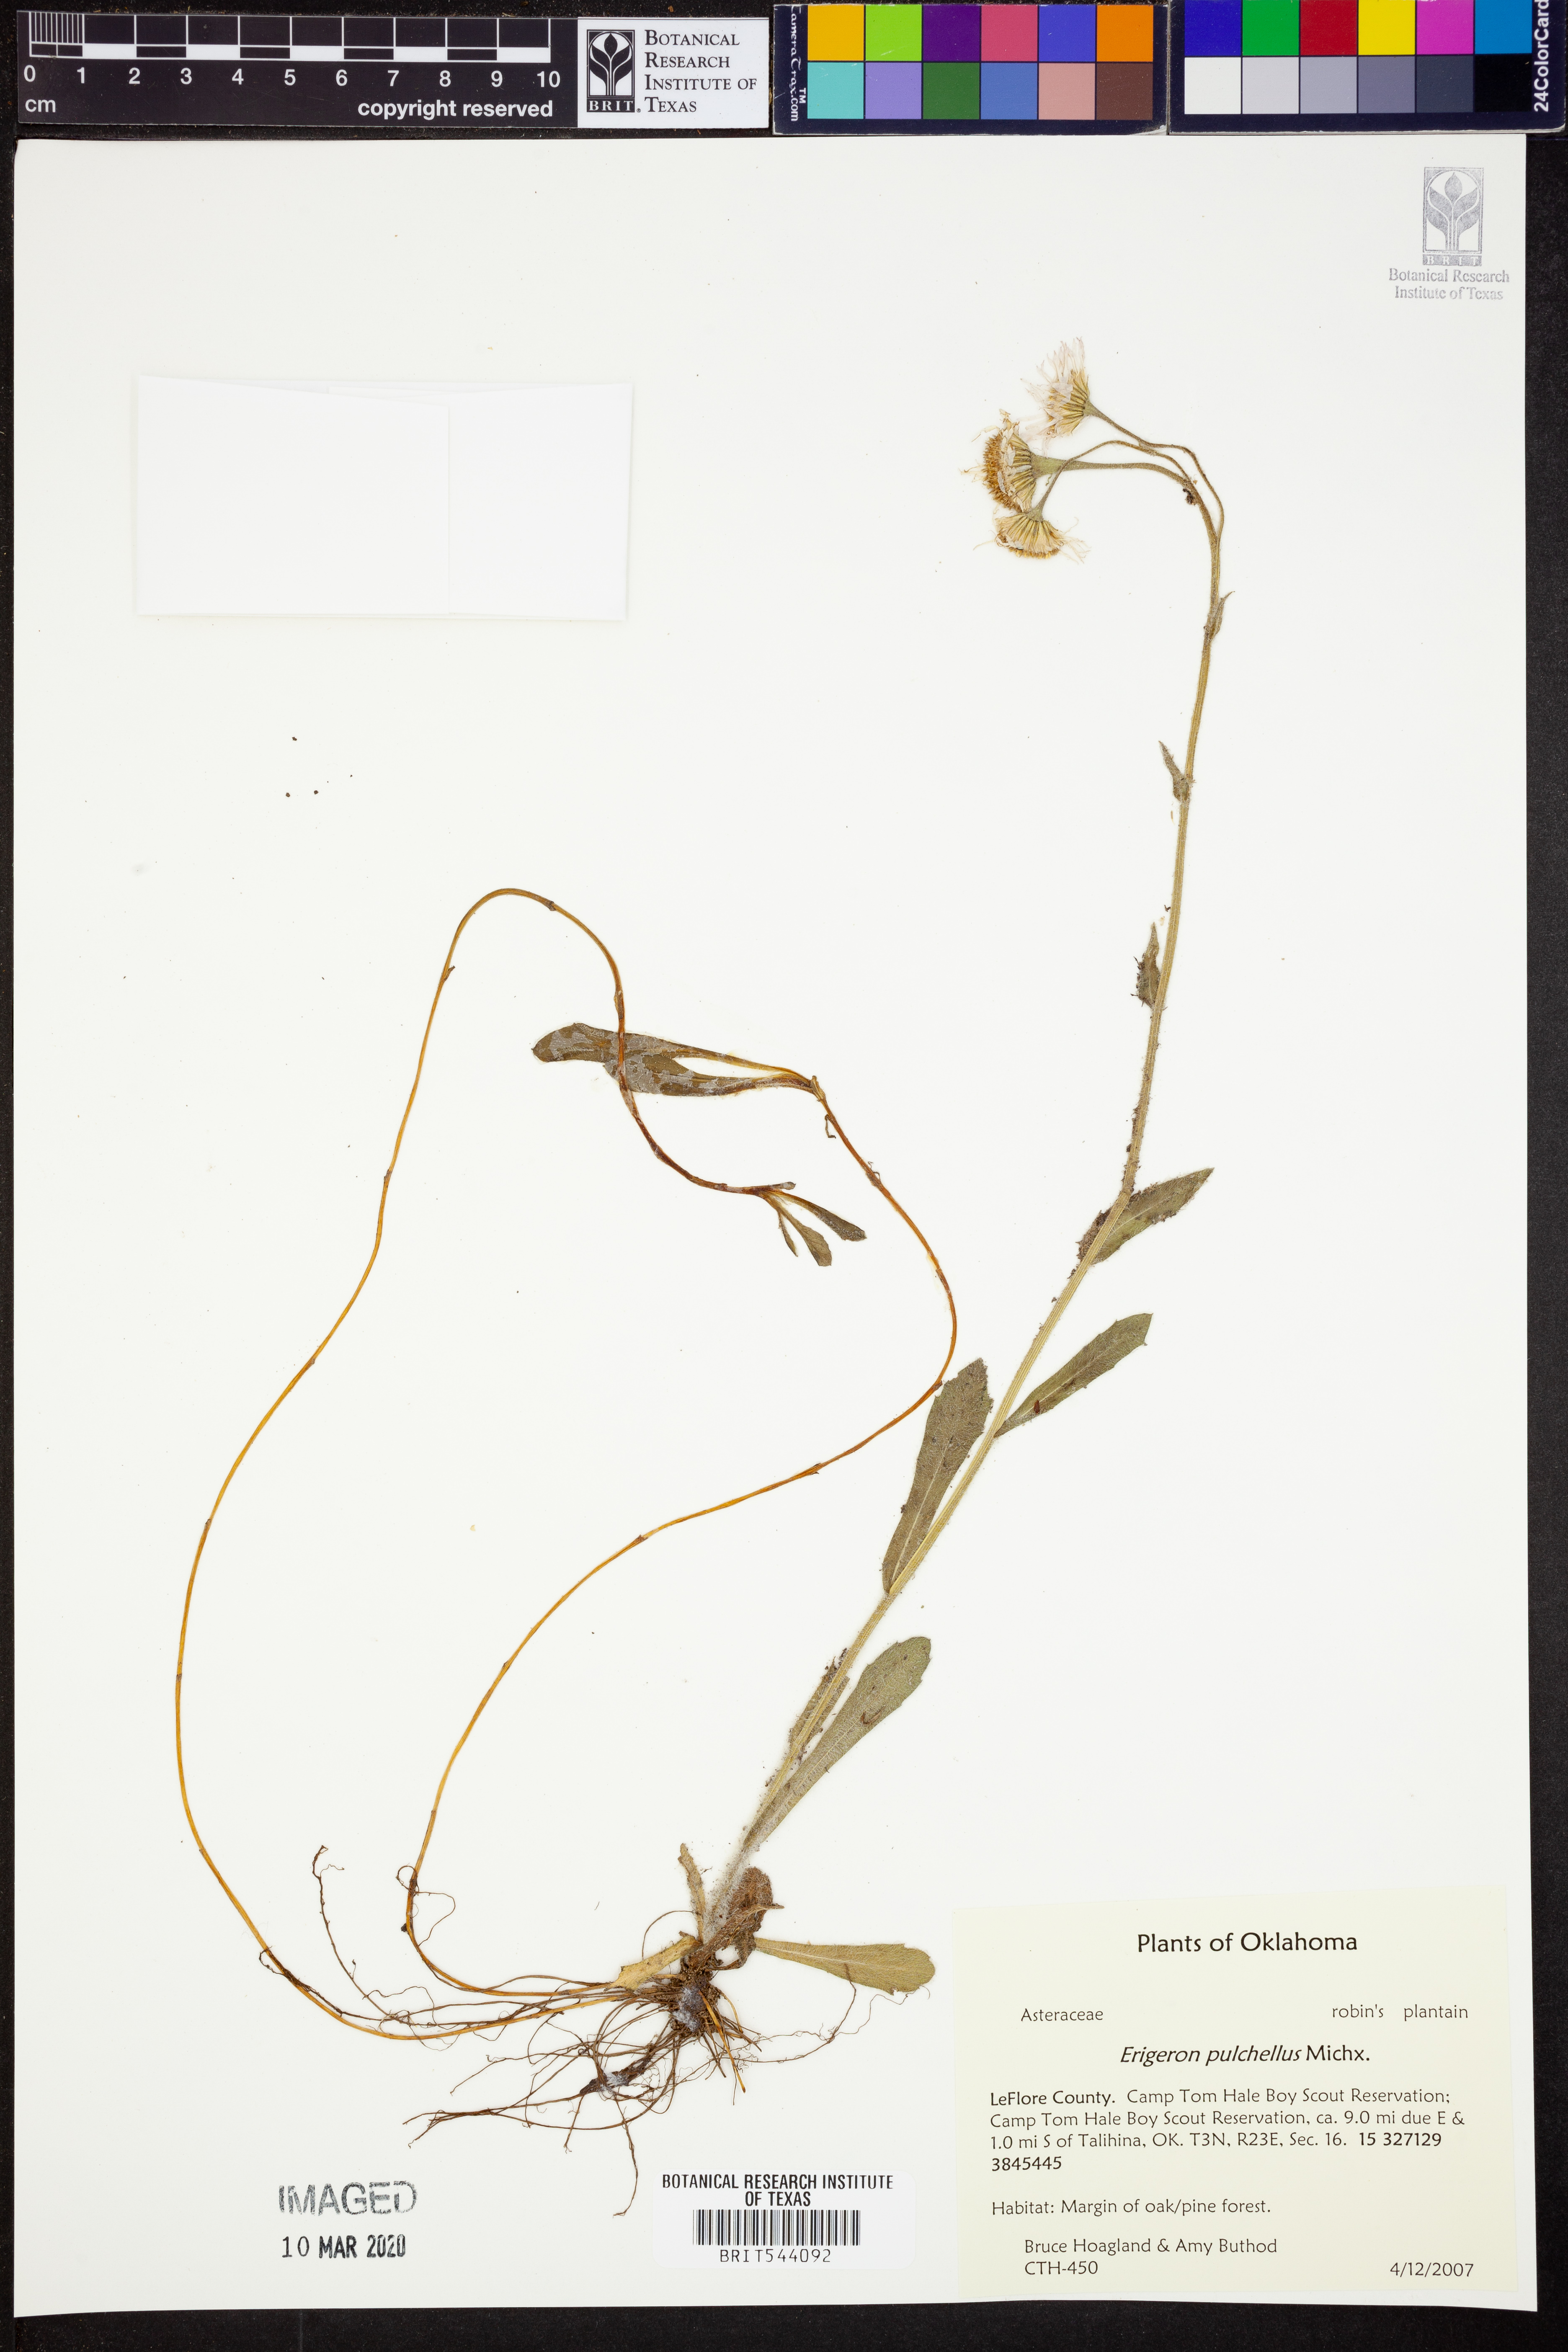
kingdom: Plantae
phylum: Tracheophyta
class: Magnoliopsida
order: Asterales
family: Asteraceae
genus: Erigeron
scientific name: Erigeron pulchellus
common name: Hairy fleabane
